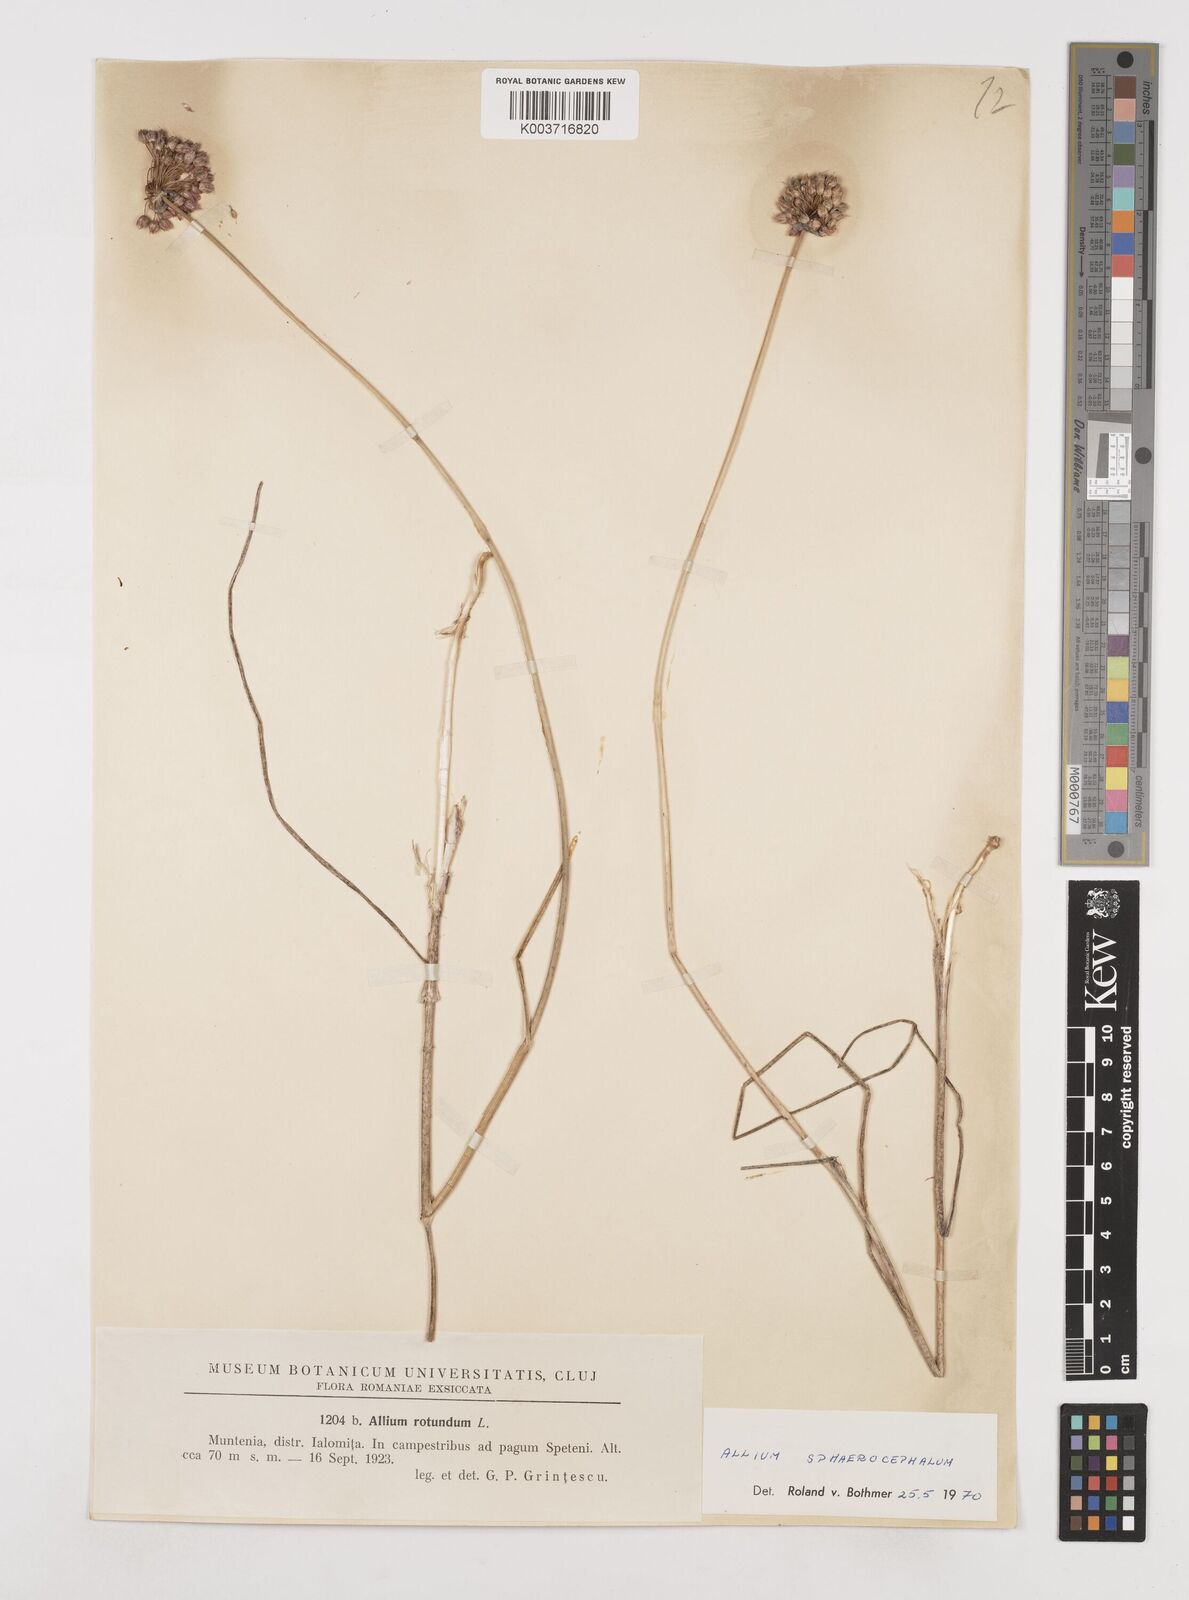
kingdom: Plantae
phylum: Tracheophyta
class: Liliopsida
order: Asparagales
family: Amaryllidaceae
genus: Allium
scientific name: Allium sphaerocephalon
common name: Round-headed leek
